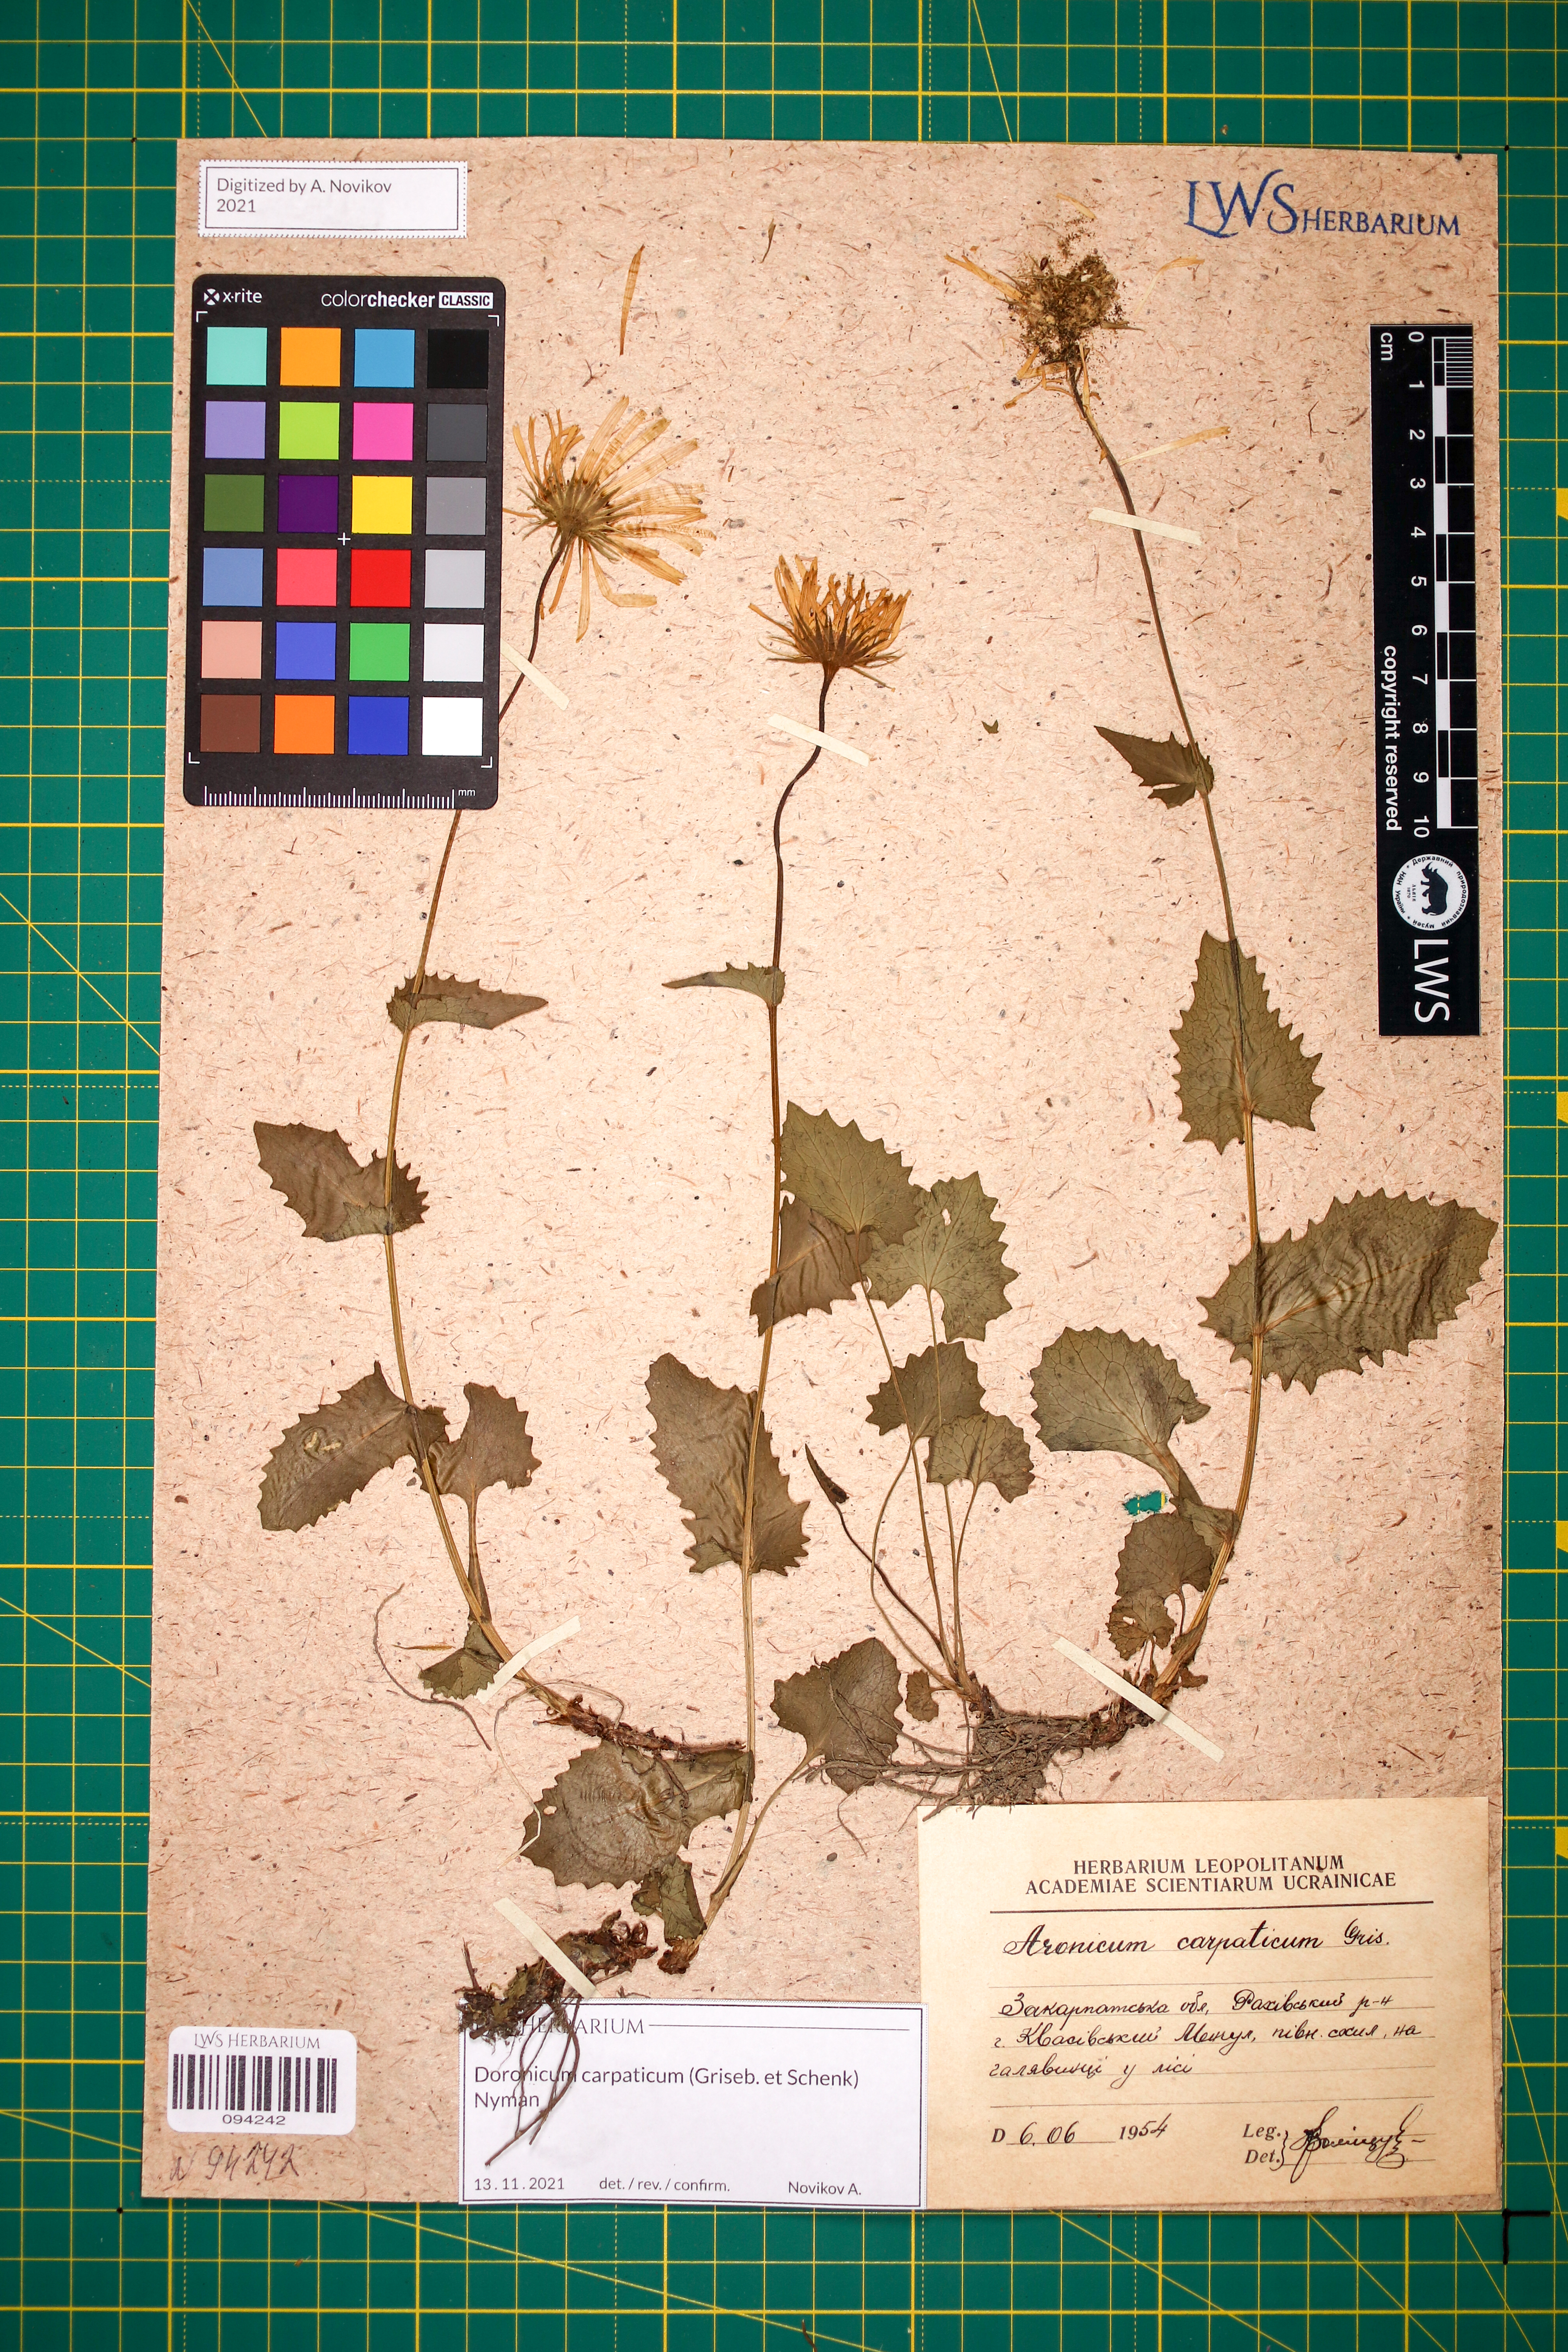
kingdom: Plantae
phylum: Tracheophyta
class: Magnoliopsida
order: Asterales
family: Asteraceae
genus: Doronicum
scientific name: Doronicum carpaticum
